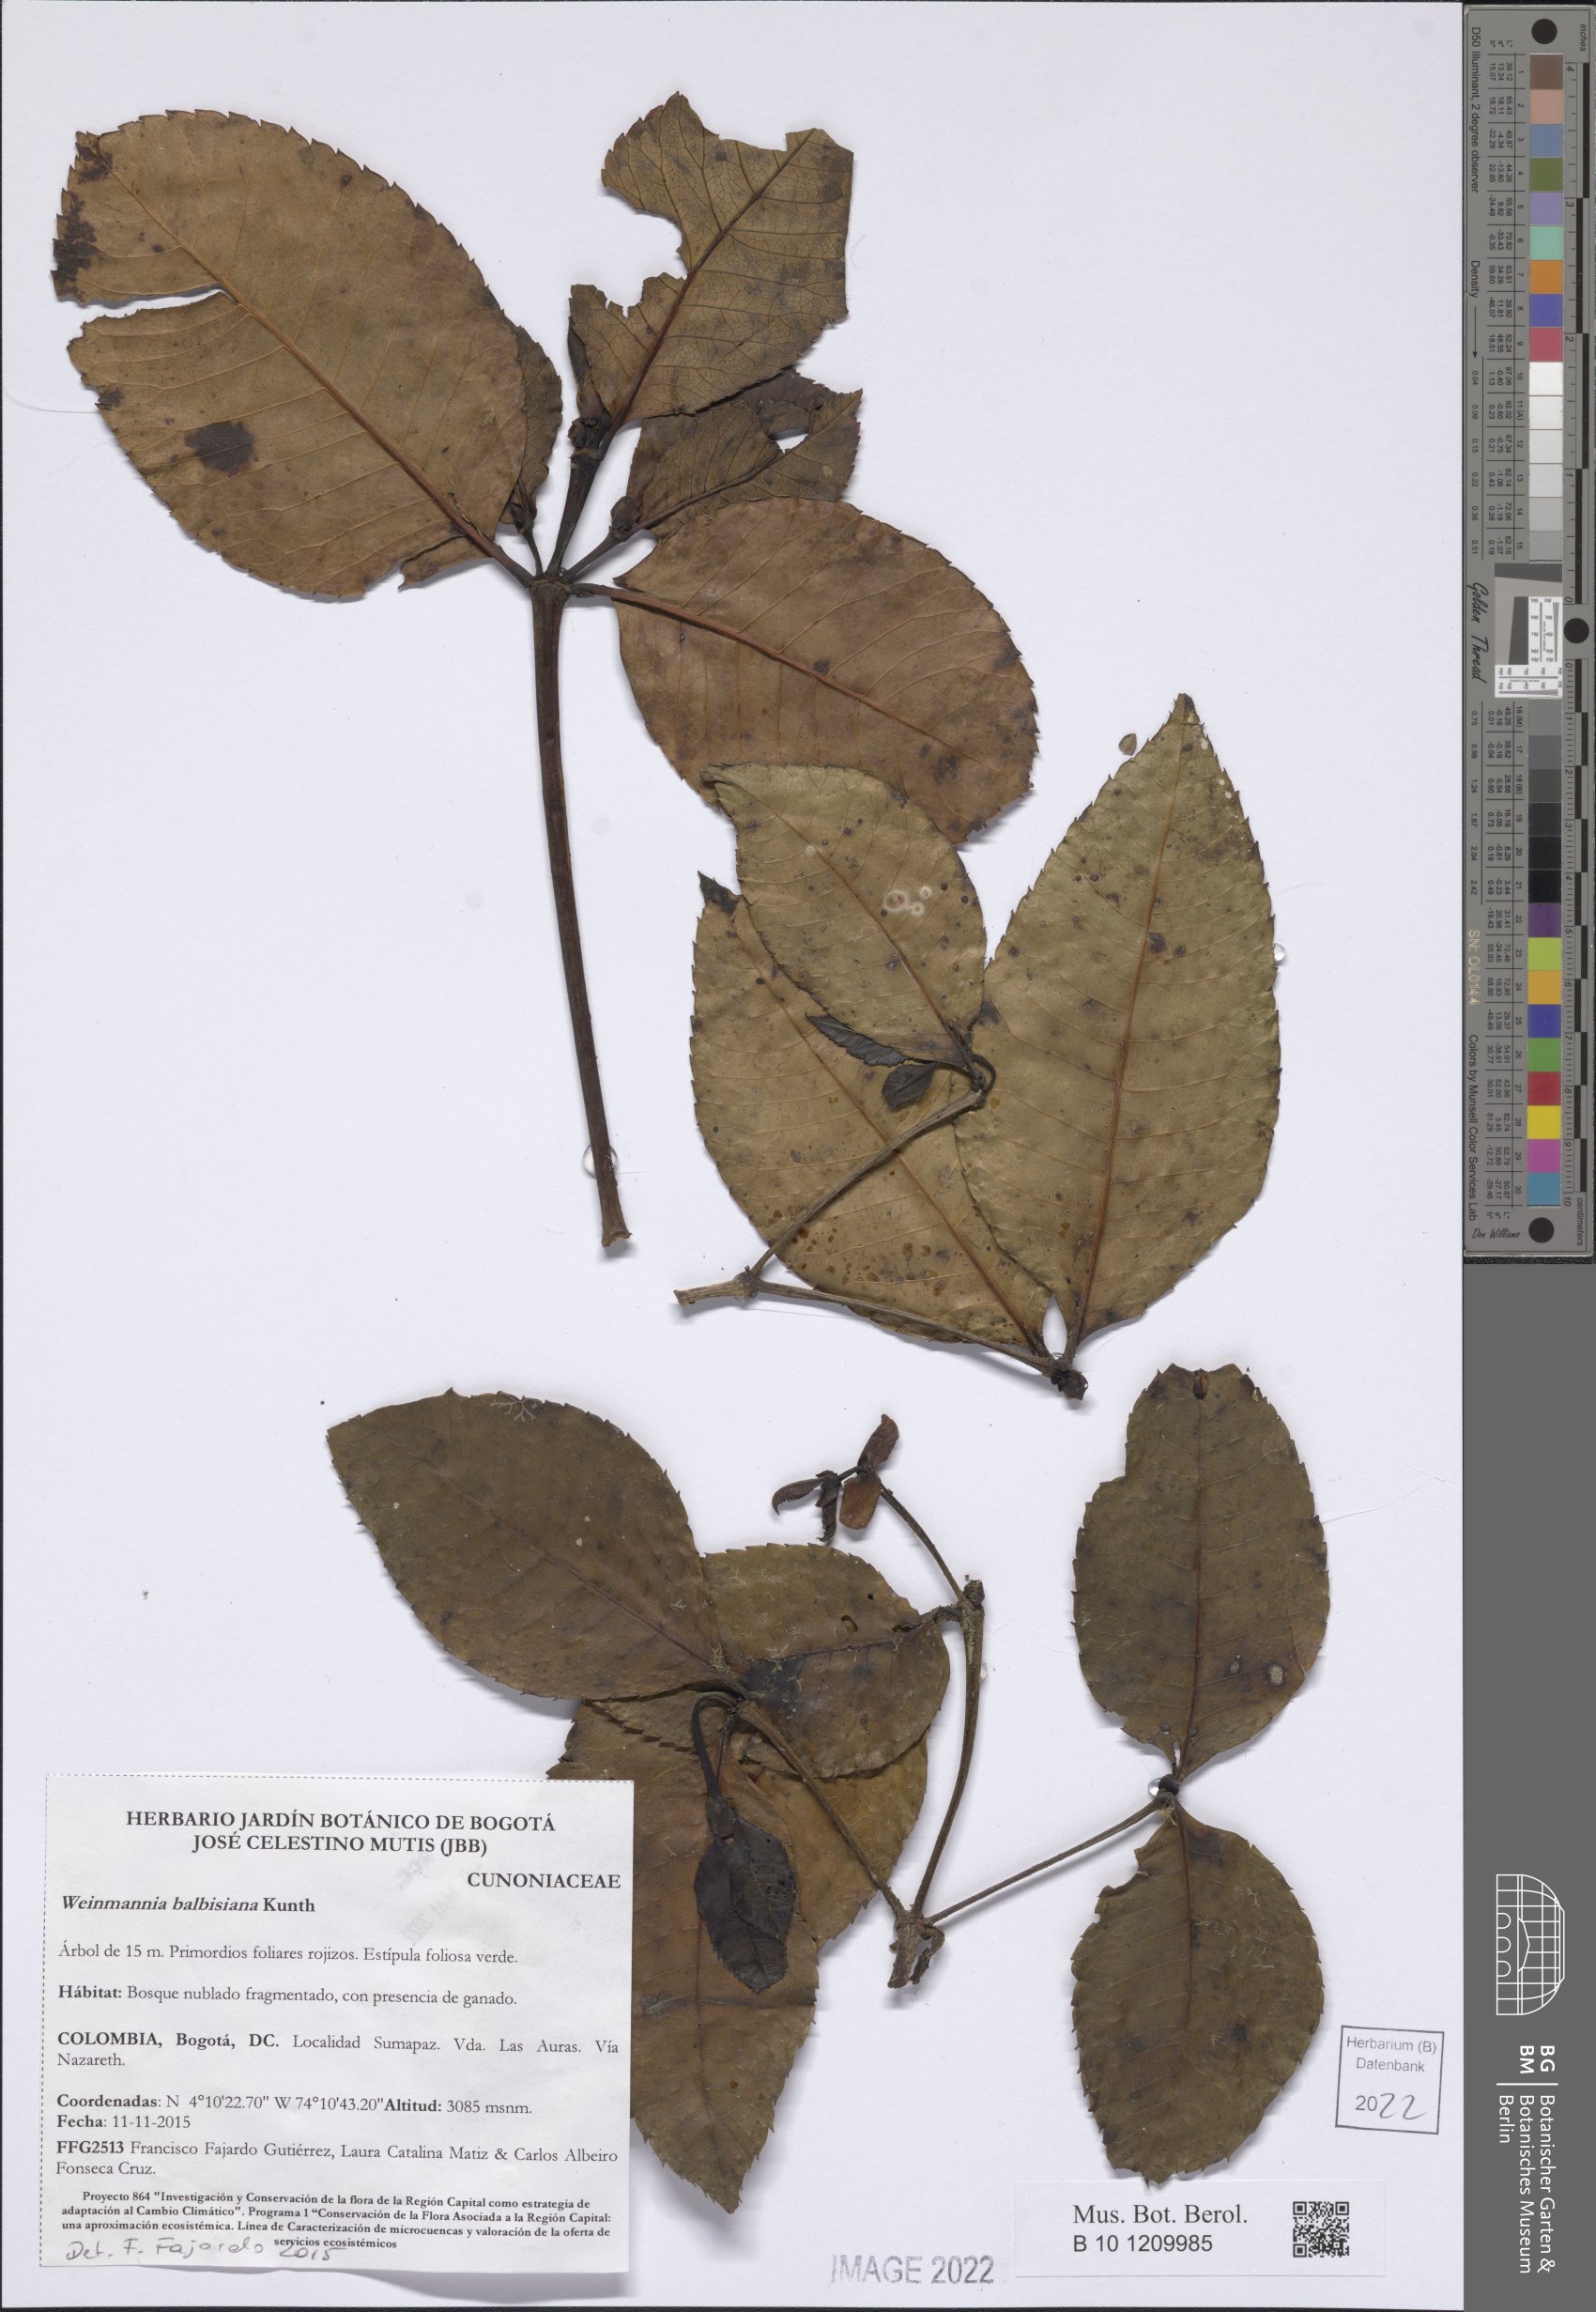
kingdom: Plantae
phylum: Tracheophyta
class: Magnoliopsida
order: Oxalidales
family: Cunoniaceae
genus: Weinmannia
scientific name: Weinmannia balbisana
